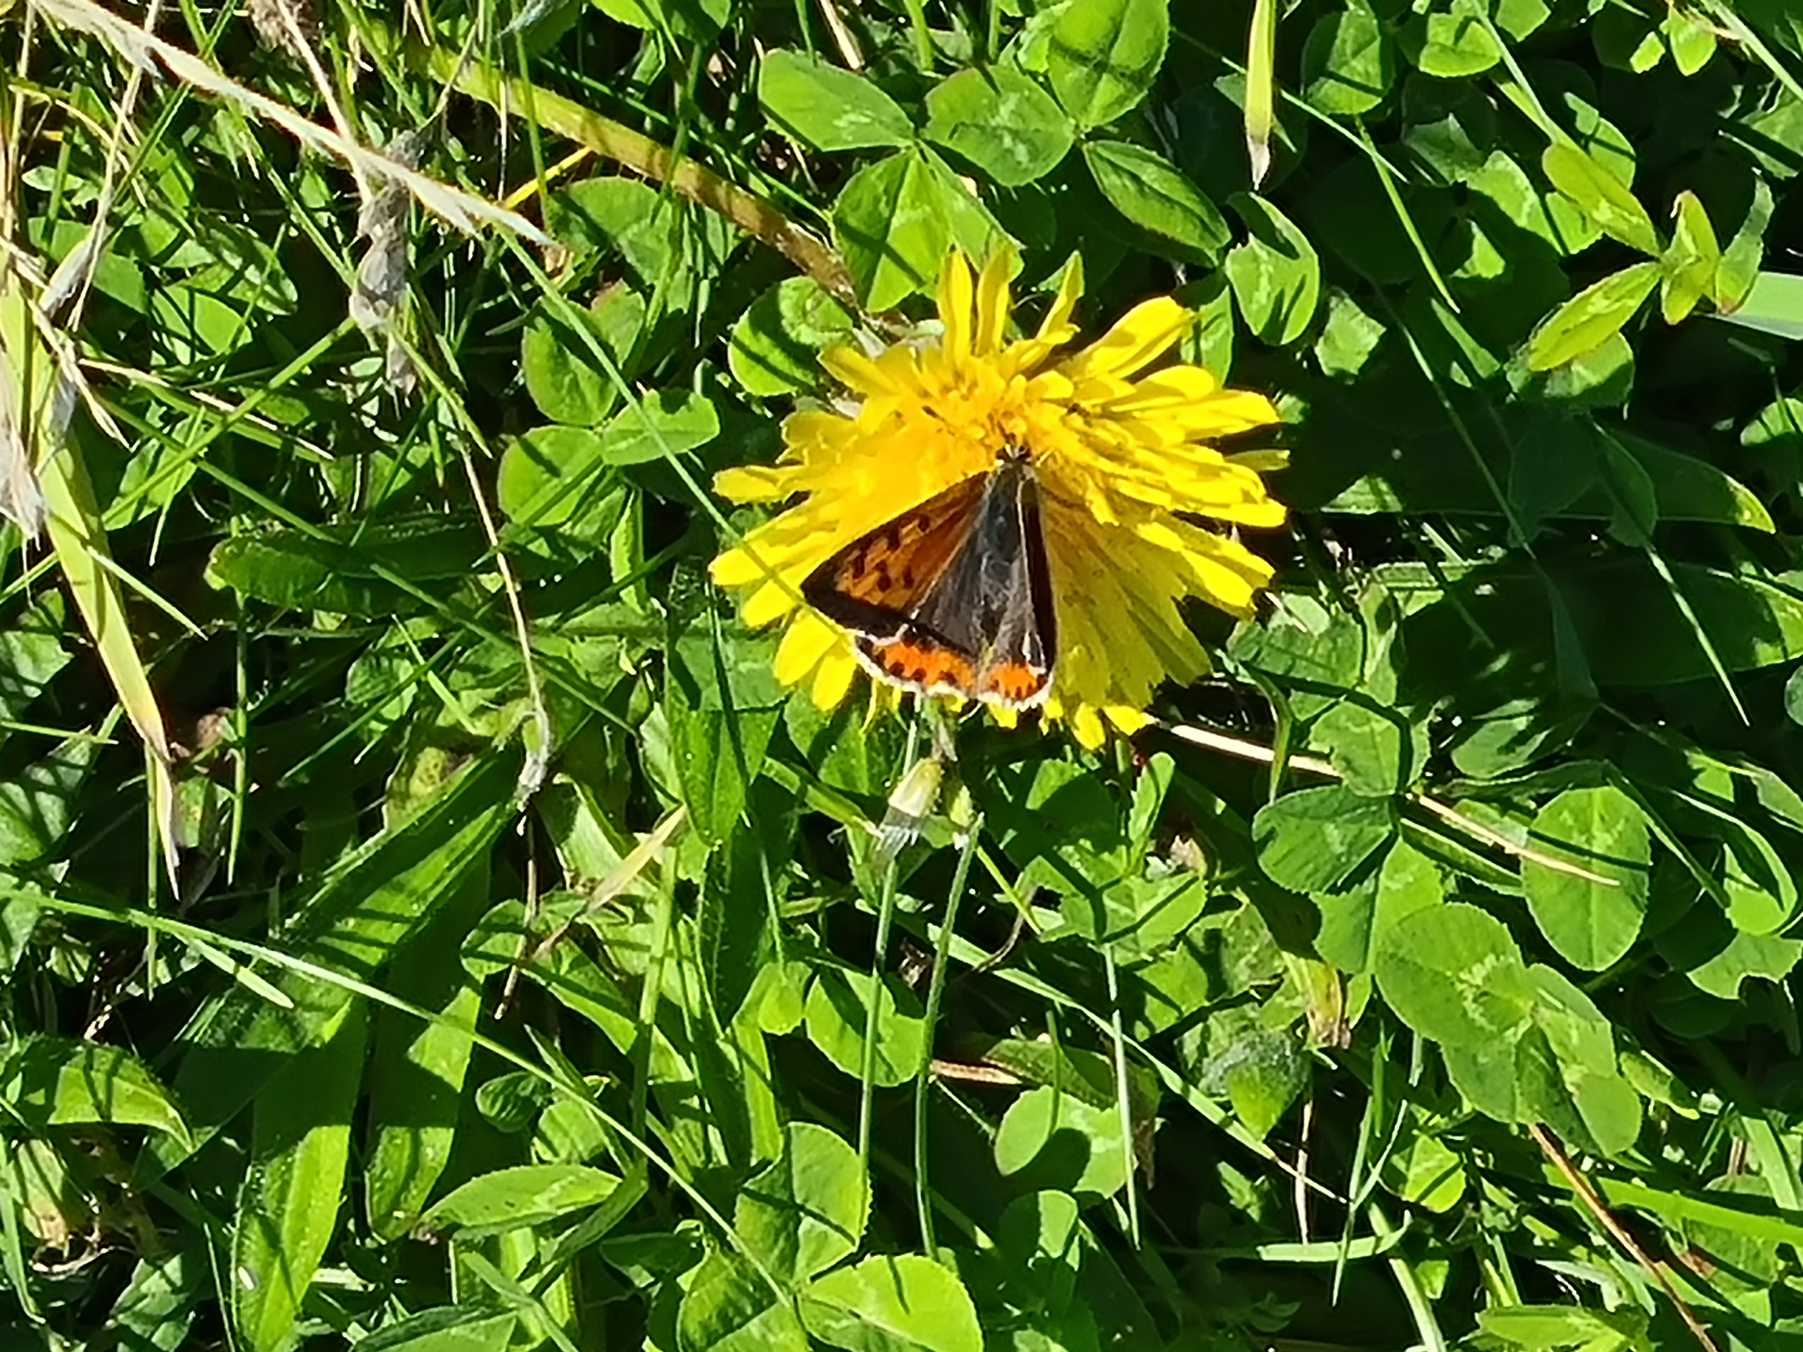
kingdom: Animalia
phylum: Arthropoda
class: Insecta
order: Lepidoptera
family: Lycaenidae
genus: Lycaena
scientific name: Lycaena phlaeas
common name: Lille ildfugl
